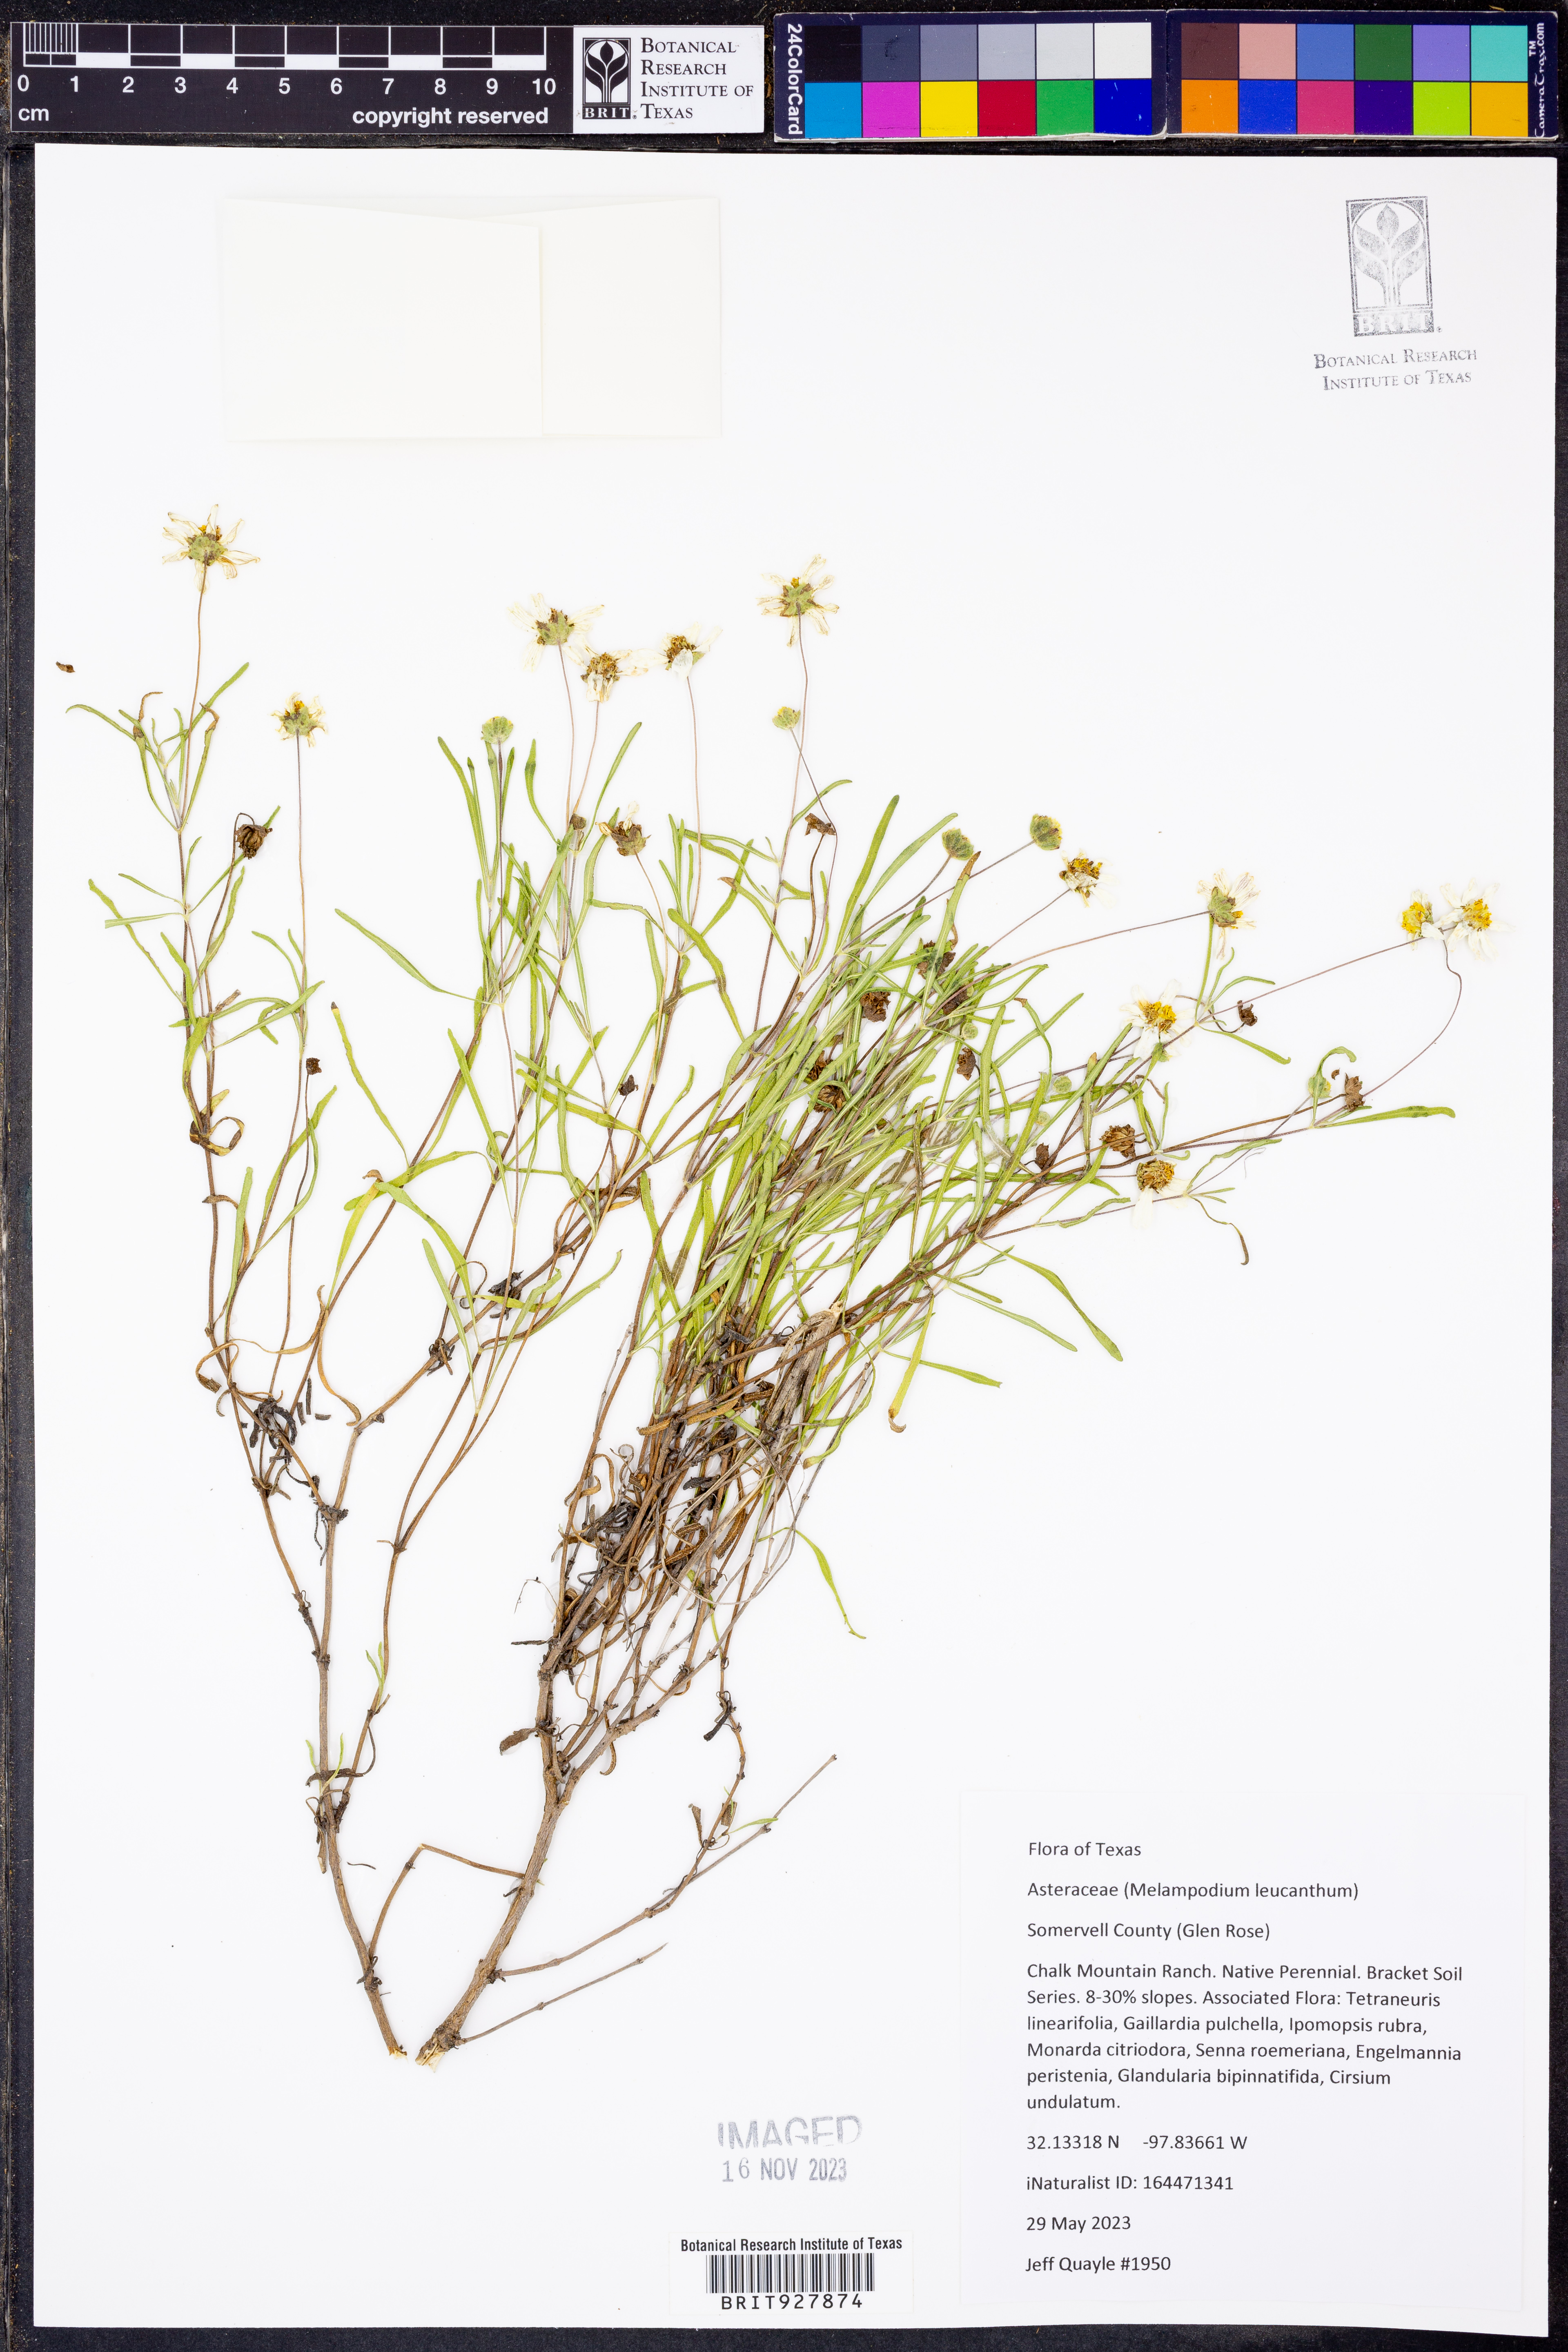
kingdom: Plantae
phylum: Tracheophyta
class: Magnoliopsida
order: Asterales
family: Asteraceae
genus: Melampodium
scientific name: Melampodium leucanthum
